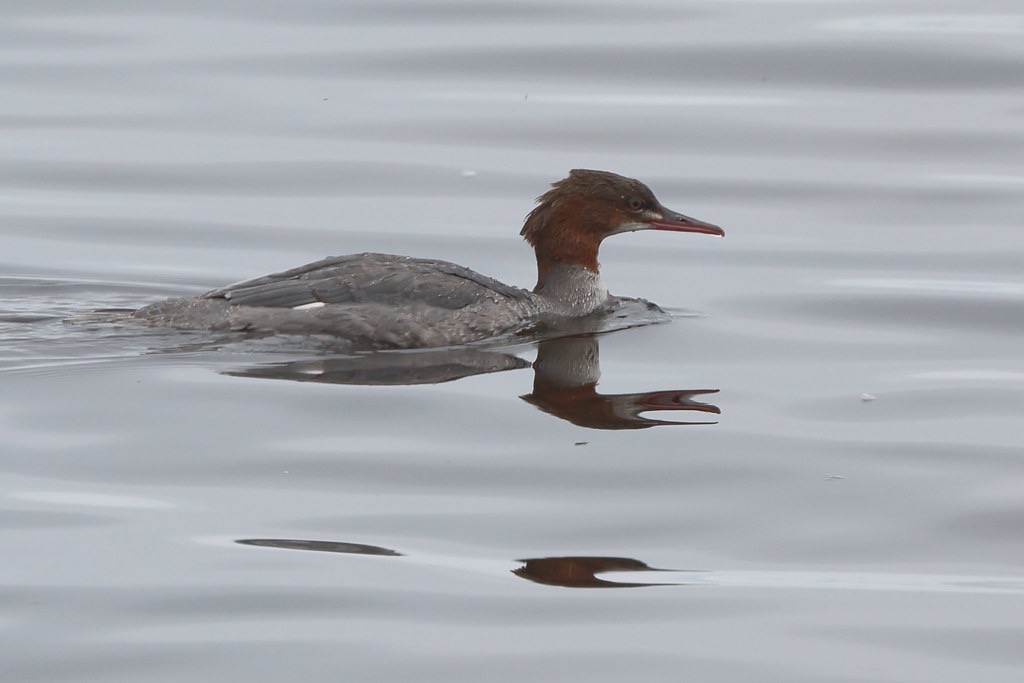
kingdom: Animalia
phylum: Chordata
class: Aves
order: Anseriformes
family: Anatidae
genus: Mergus
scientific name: Mergus merganser
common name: Stor skallesluger
